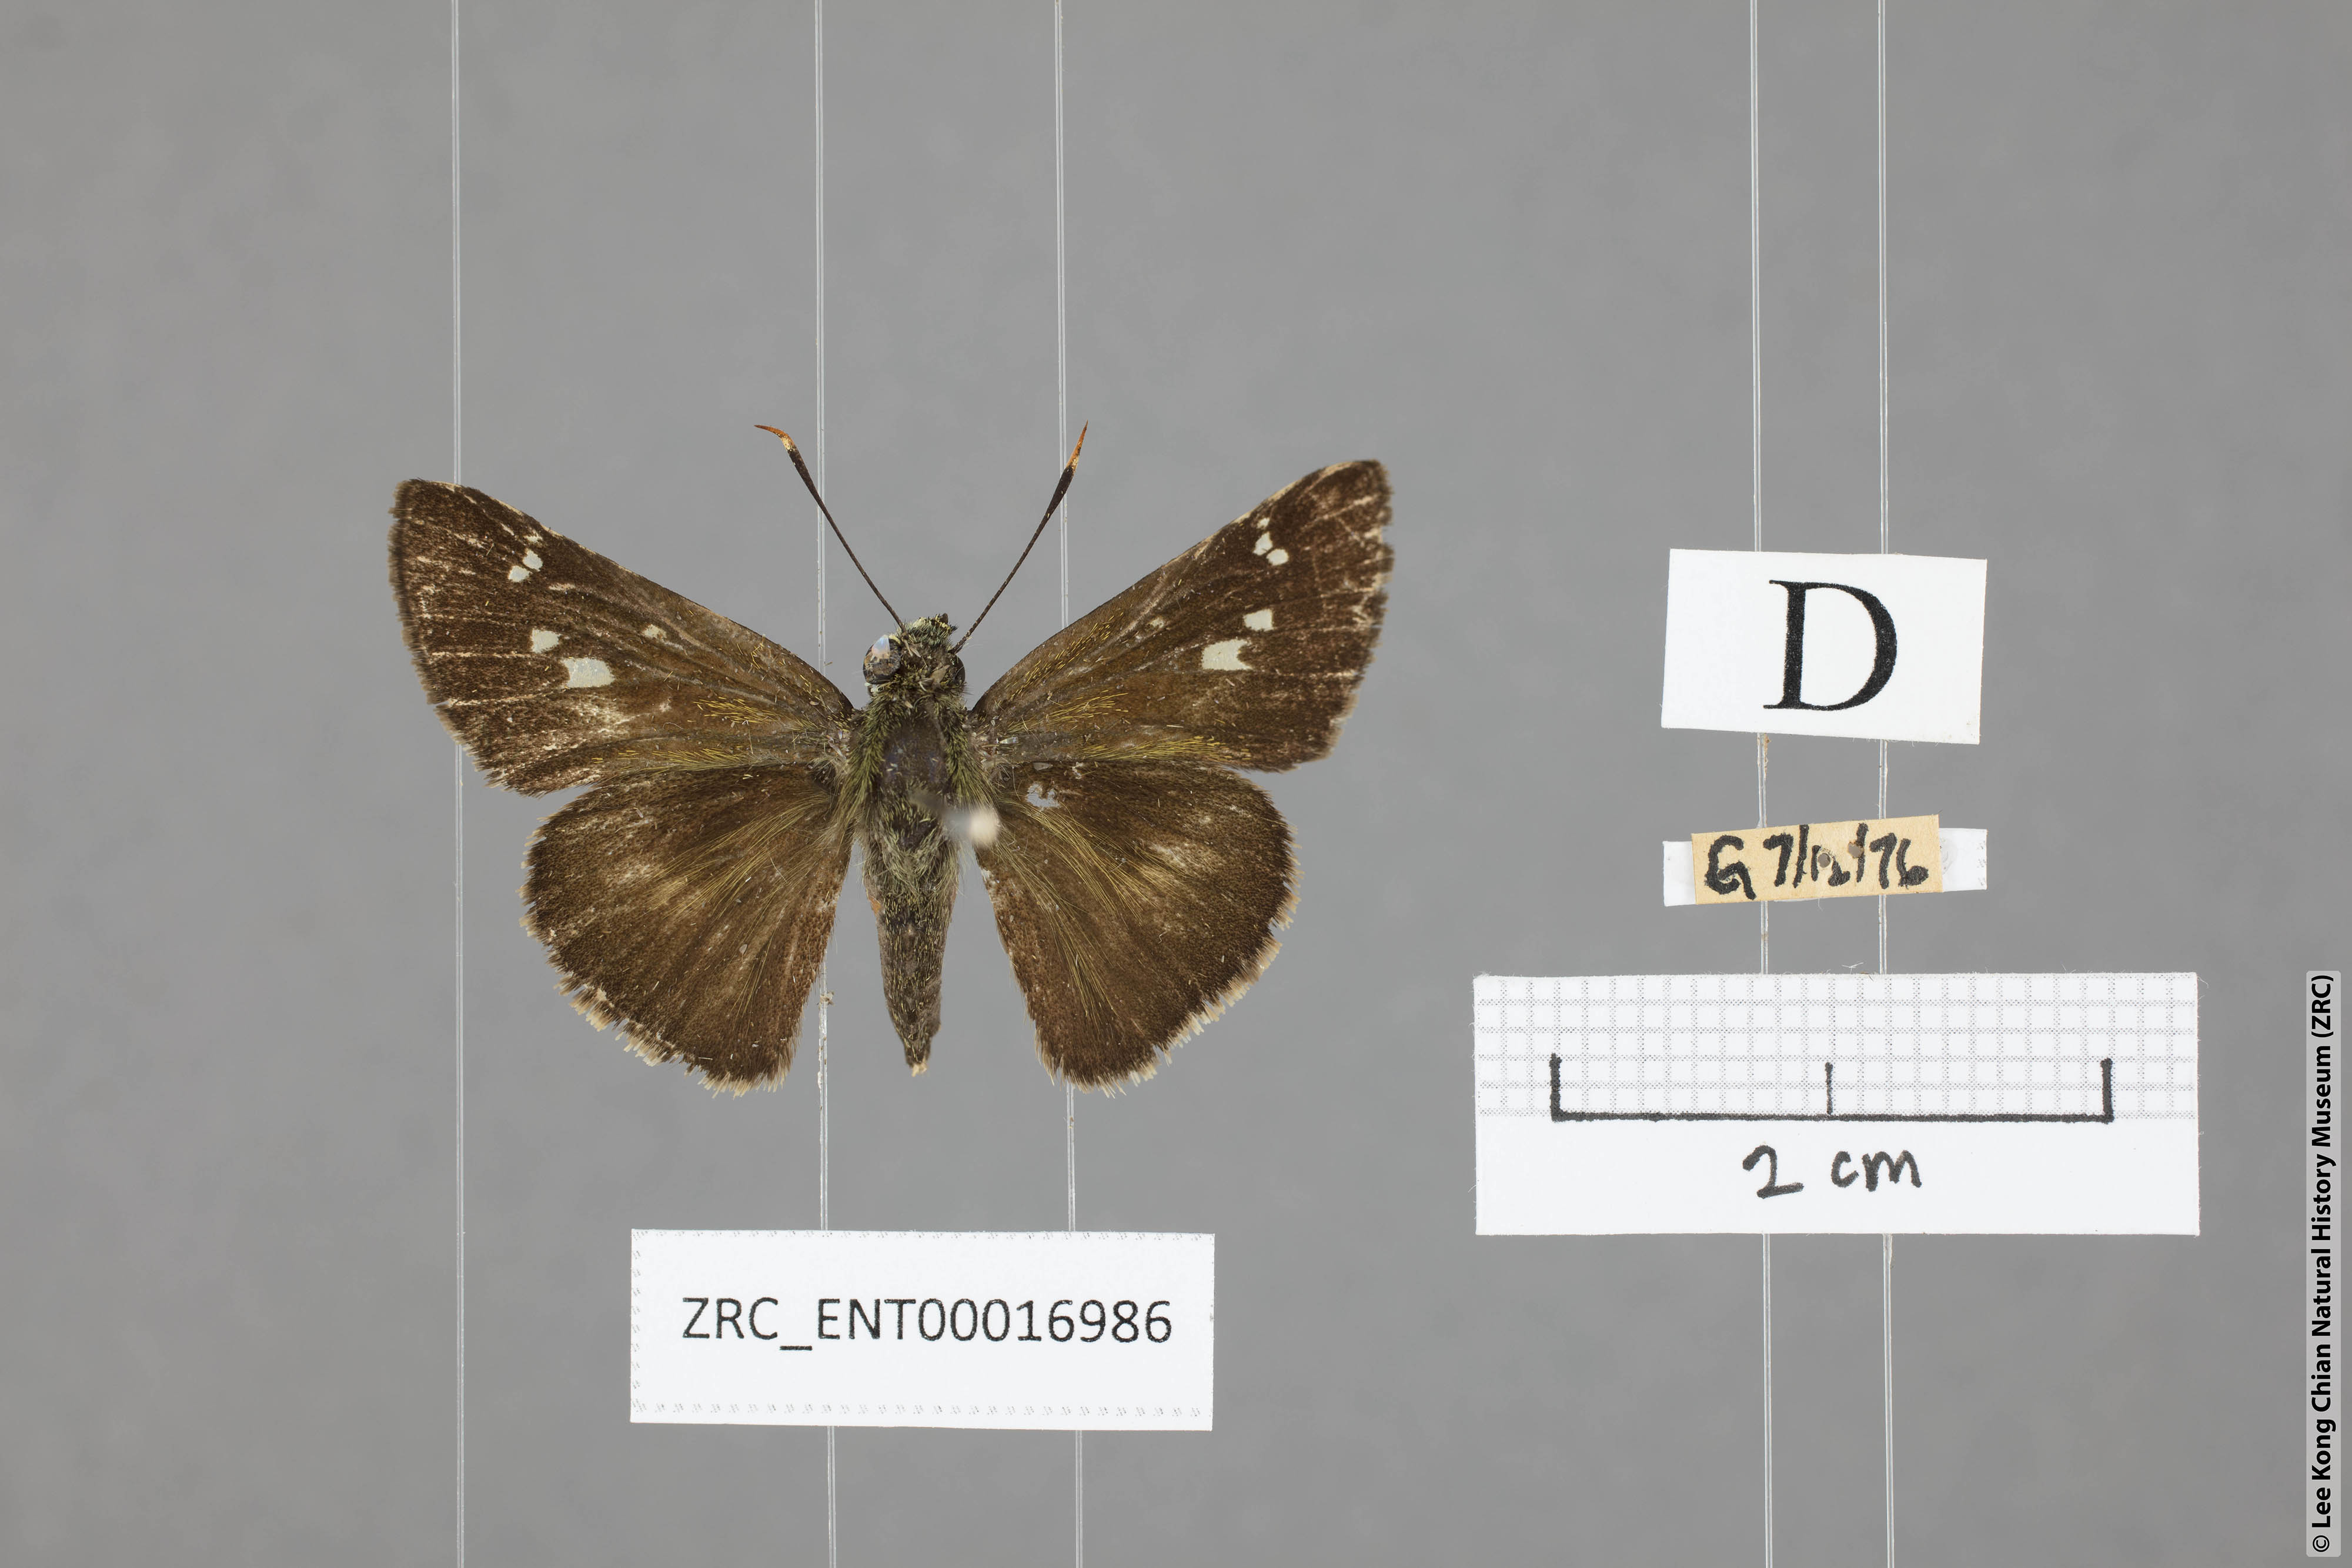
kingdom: Animalia
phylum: Arthropoda
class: Insecta
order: Lepidoptera
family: Hesperiidae
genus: Halpe
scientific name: Halpe elana
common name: Narrow-banded ace
